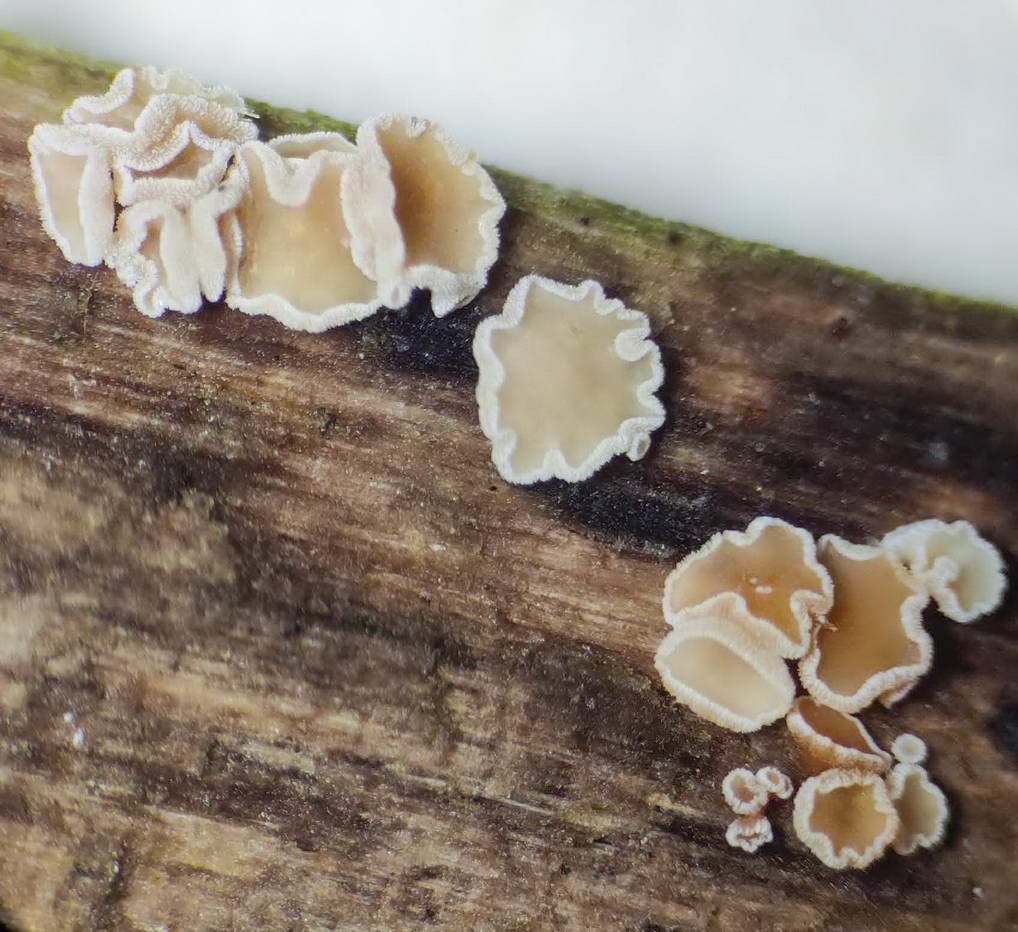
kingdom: Fungi
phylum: Ascomycota
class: Leotiomycetes
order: Helotiales
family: Lachnaceae
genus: Lachnum
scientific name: Lachnum brevipilosum
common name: korthåret frynseskive
